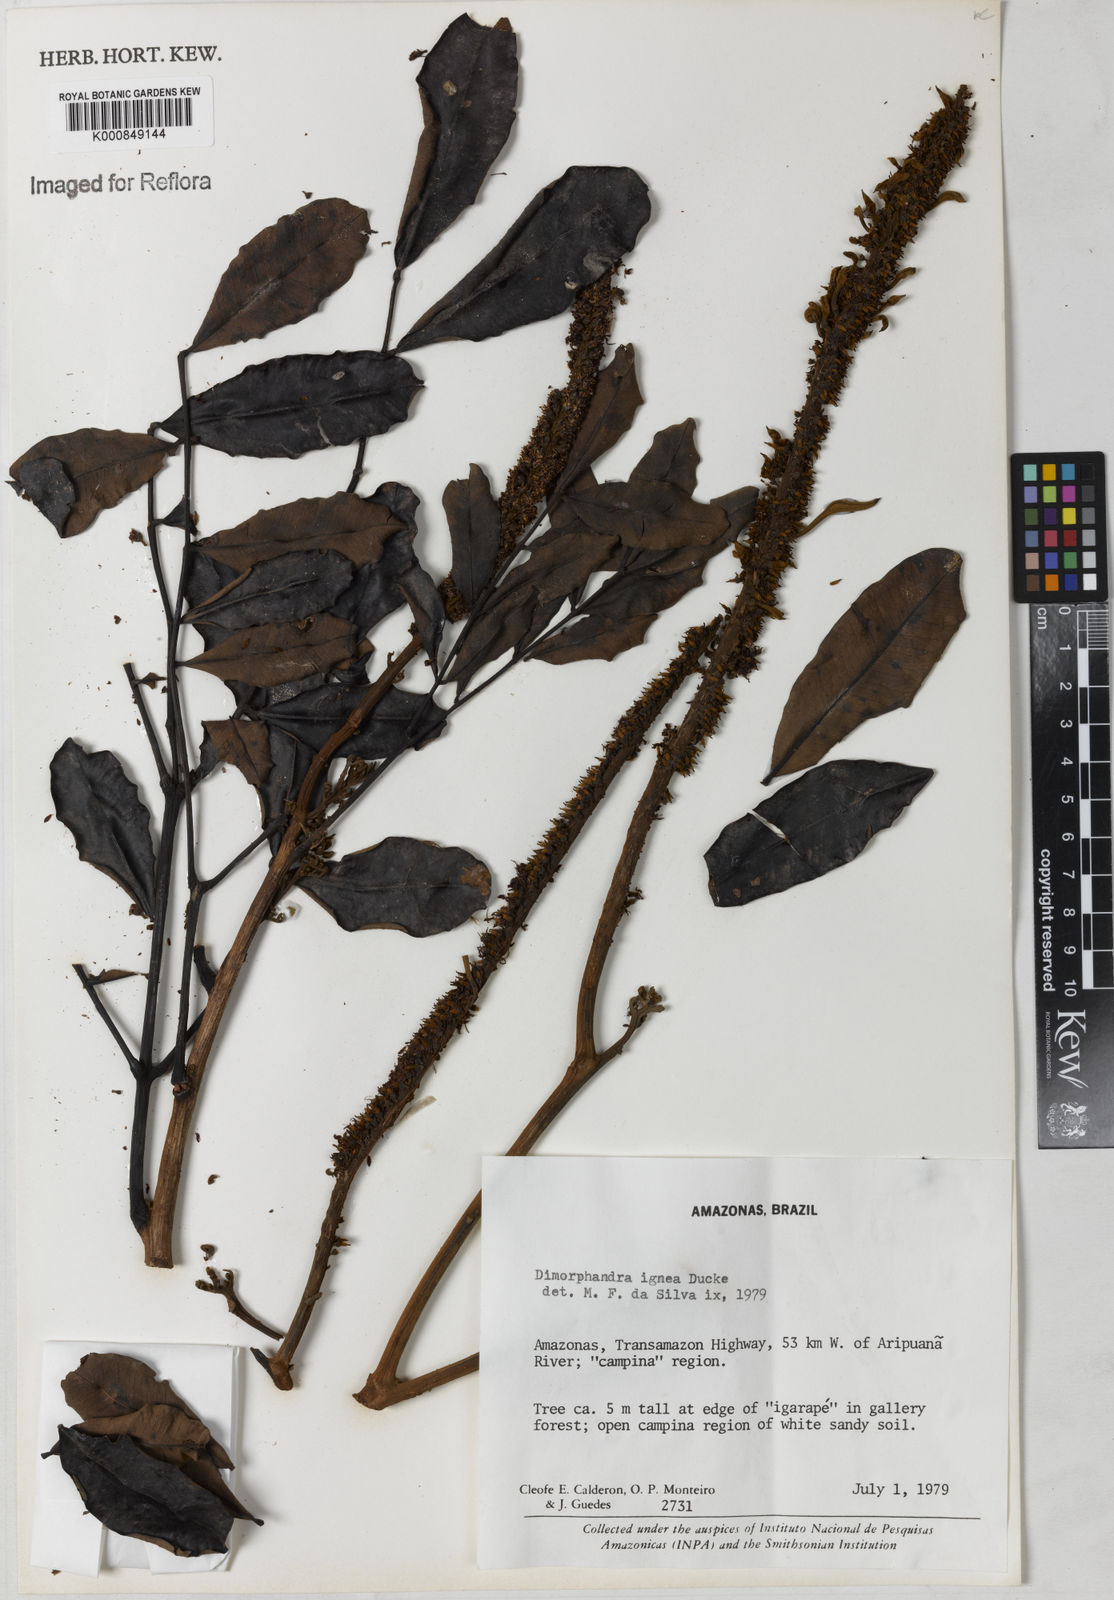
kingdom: Plantae
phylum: Tracheophyta
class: Magnoliopsida
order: Fabales
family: Fabaceae
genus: Dimorphandra
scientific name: Dimorphandra ignea
